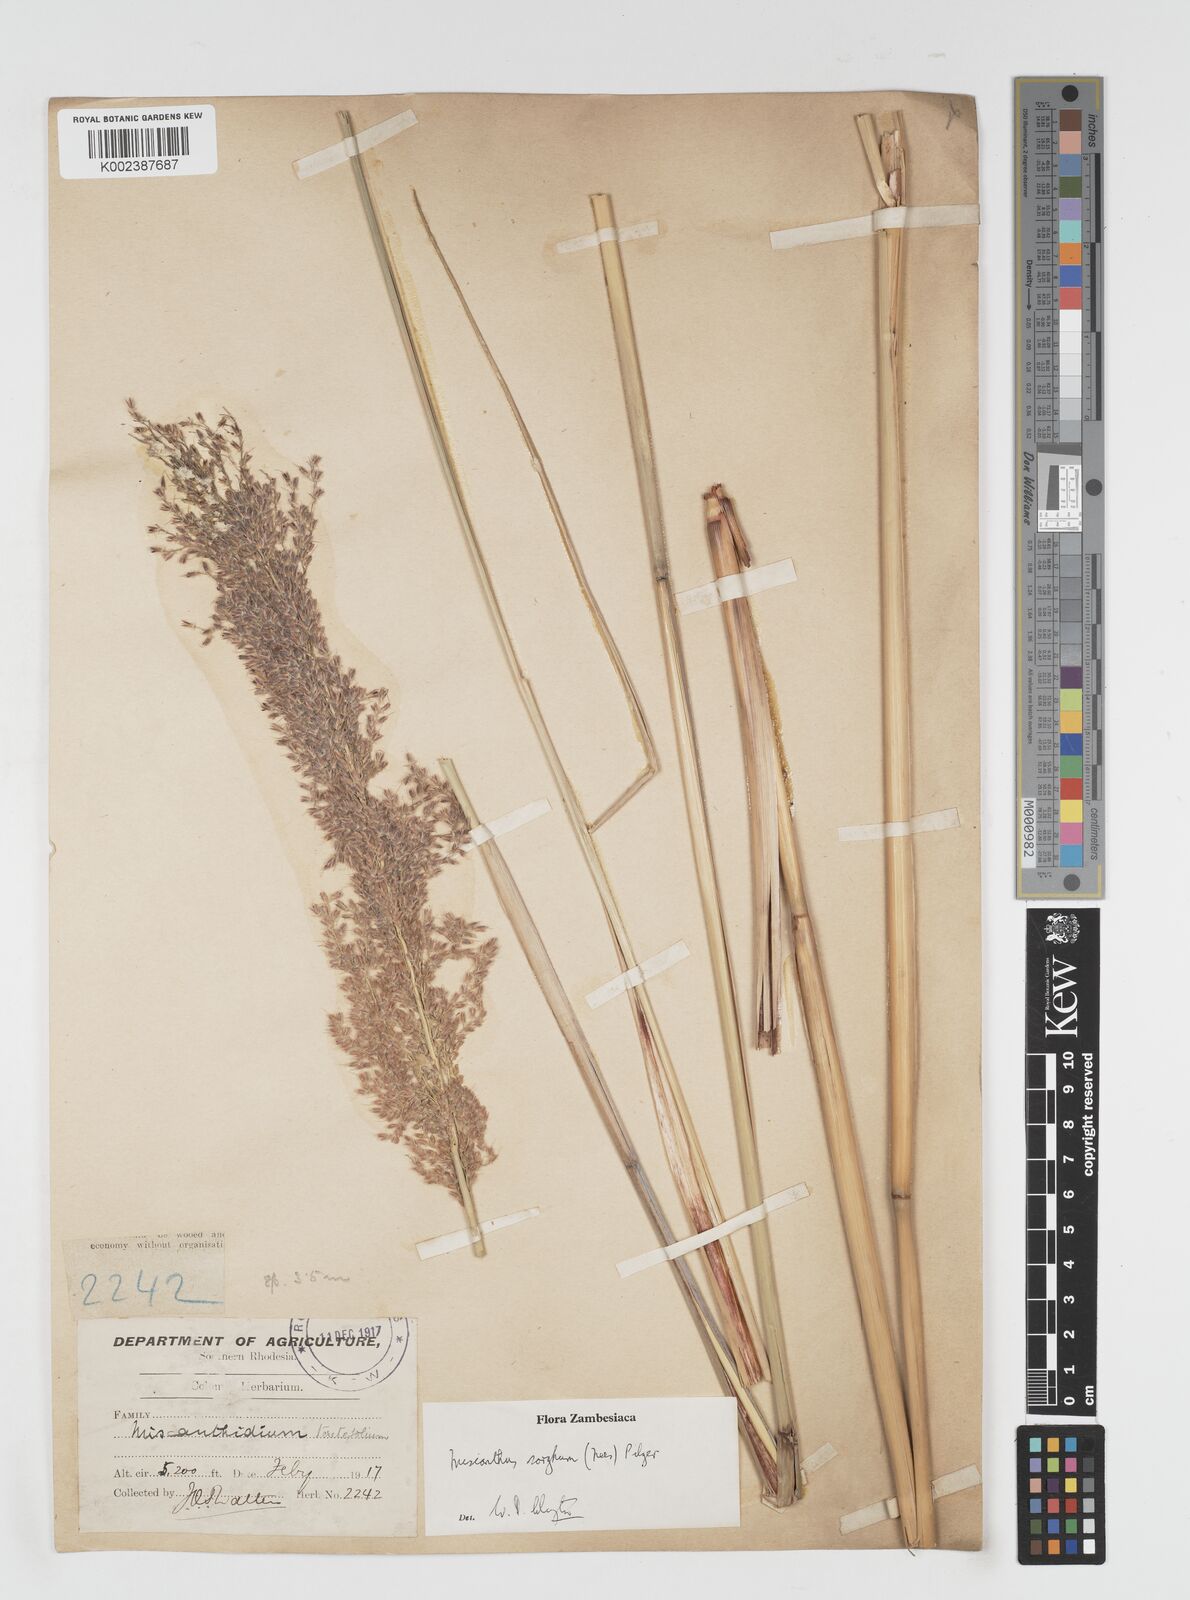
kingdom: Plantae
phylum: Tracheophyta
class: Liliopsida
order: Poales
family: Poaceae
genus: Miscanthus
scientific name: Miscanthus ecklonii
